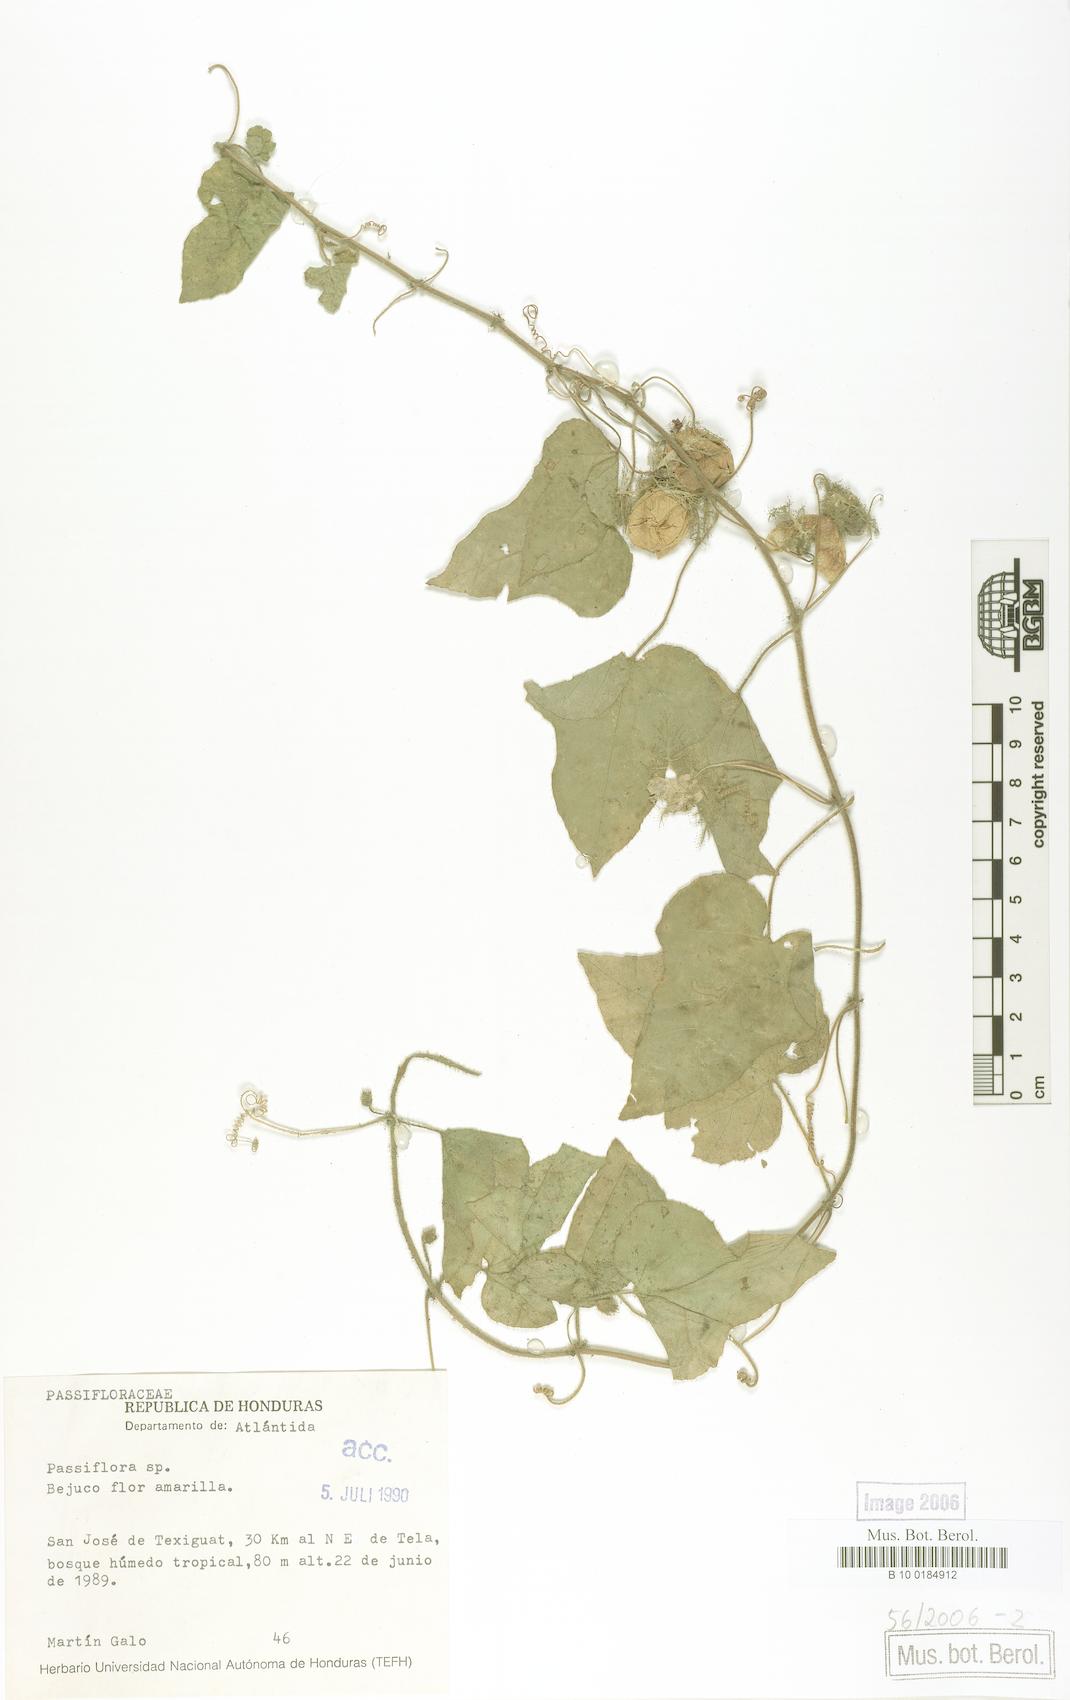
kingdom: Plantae
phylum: Tracheophyta
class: Magnoliopsida
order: Malpighiales
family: Passifloraceae
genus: Passiflora
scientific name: Passiflora foetida
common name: Fetid passionflower
